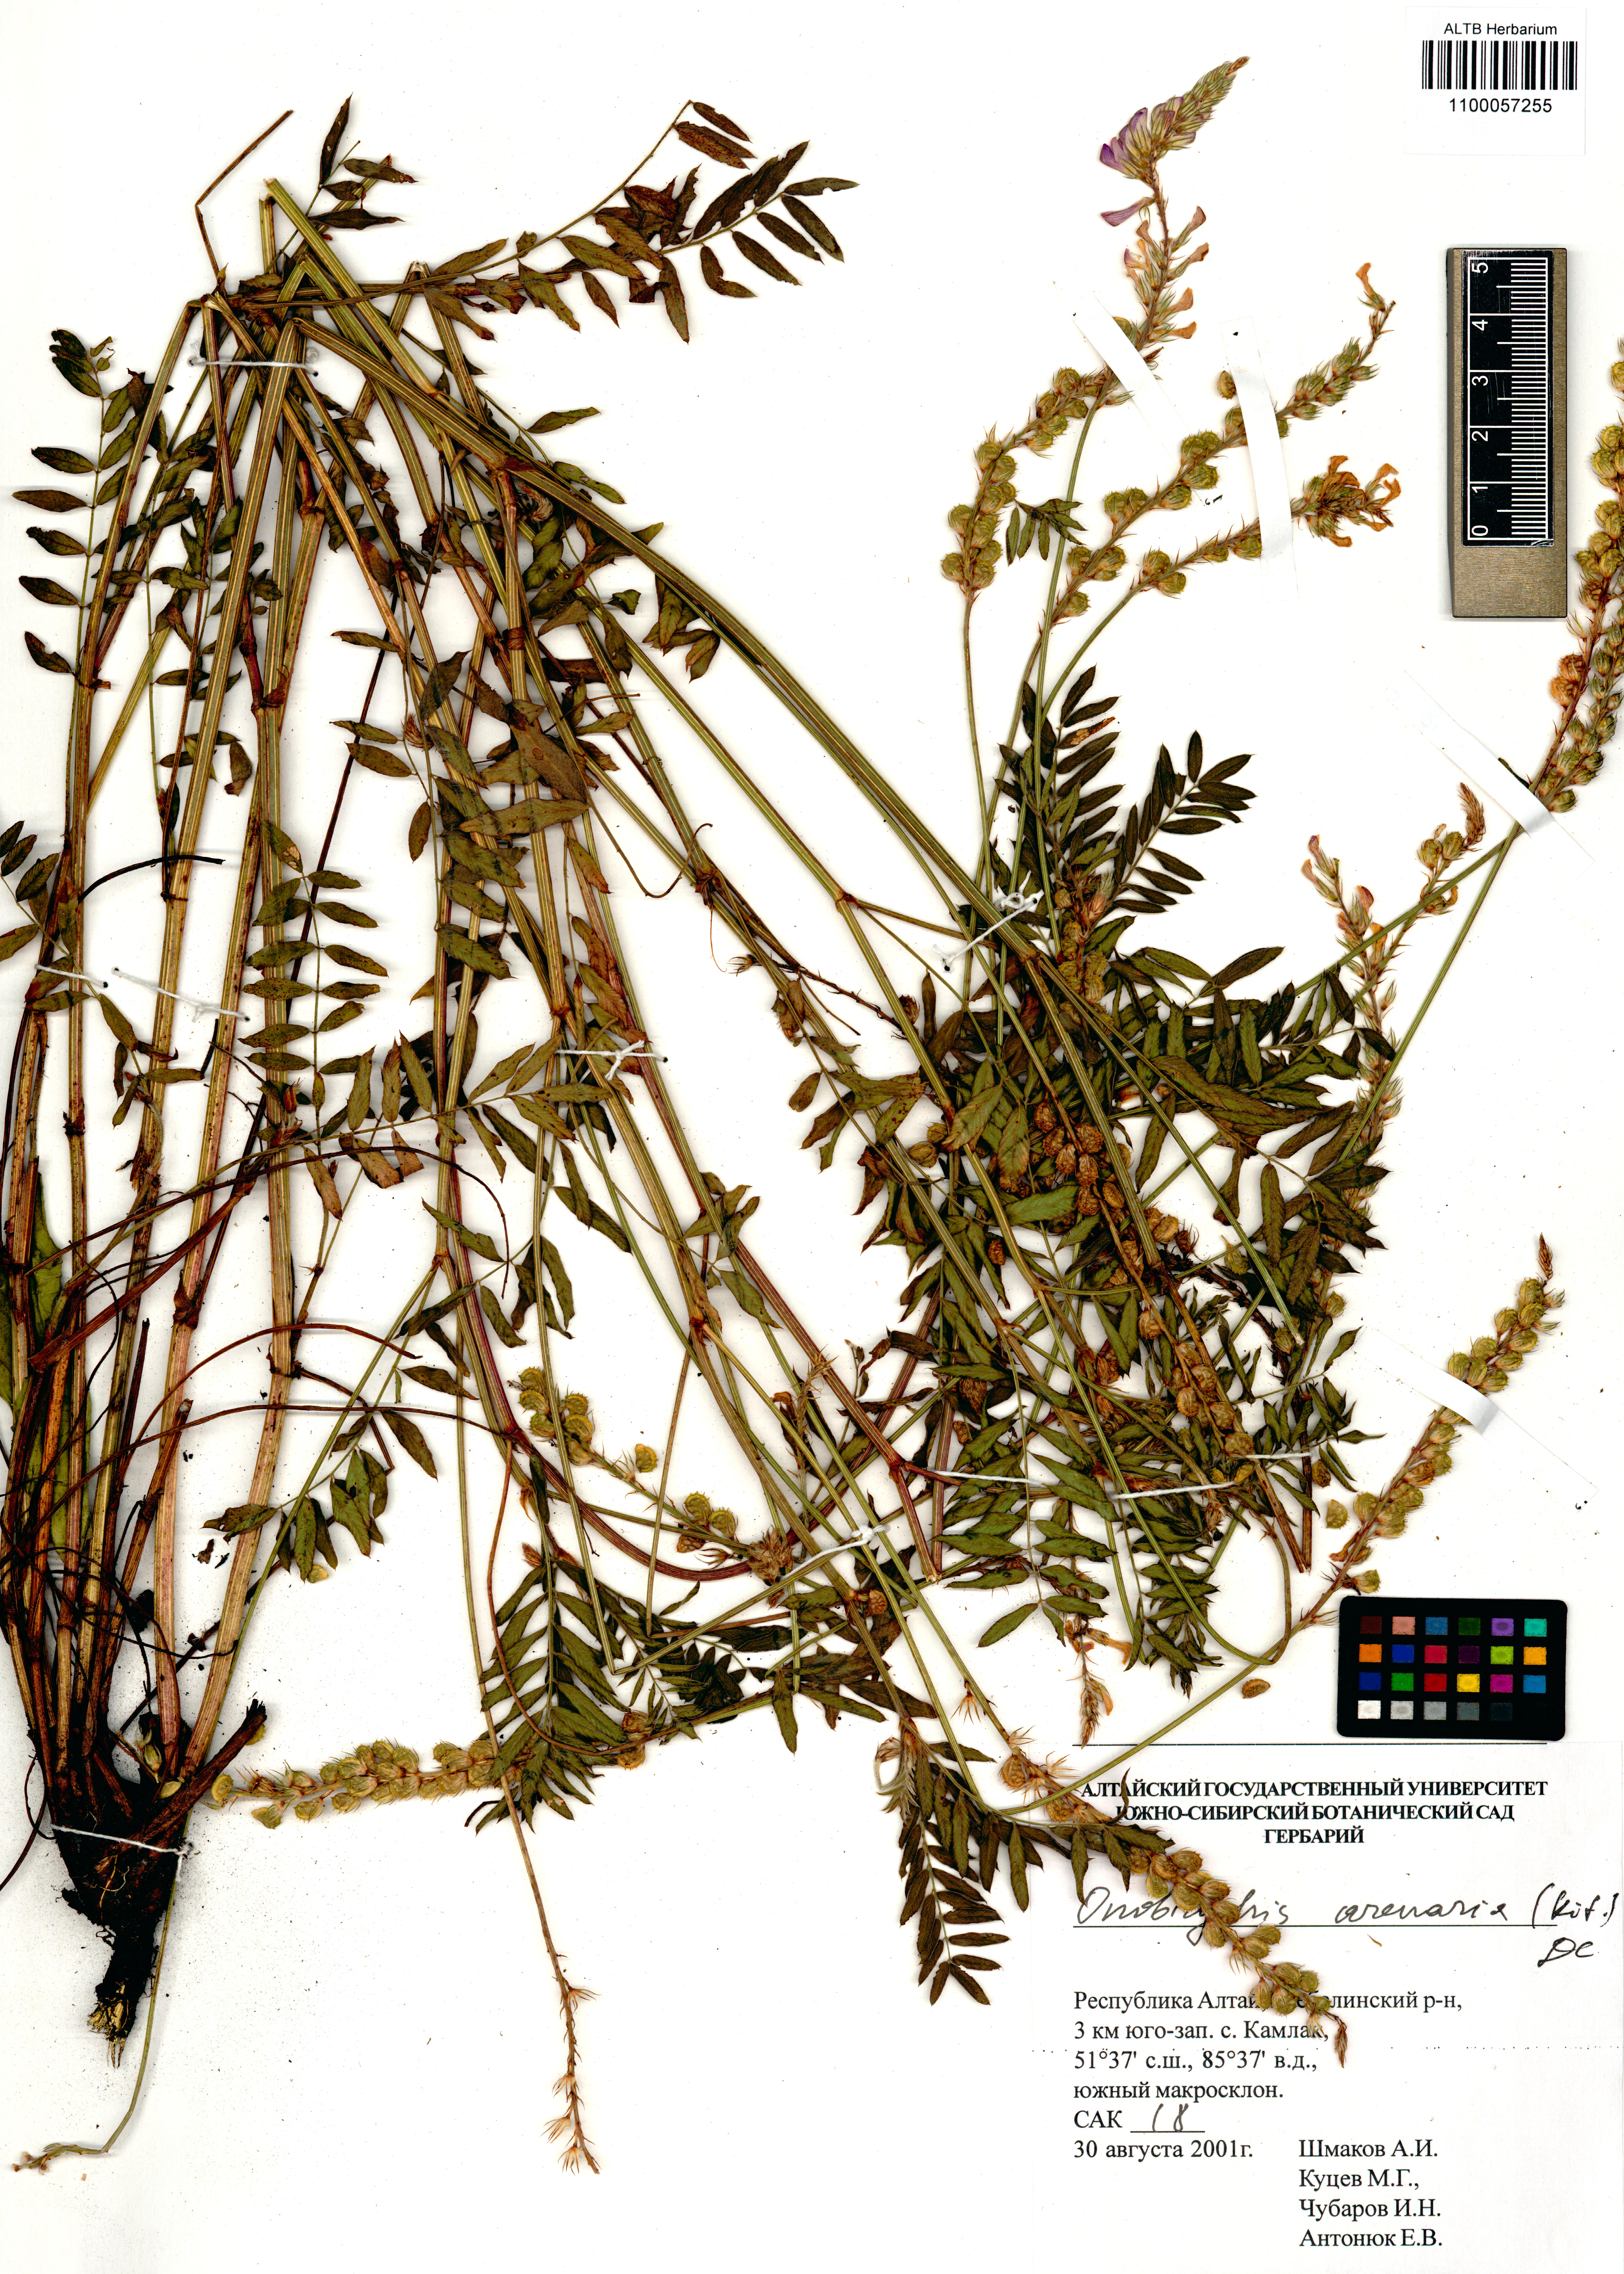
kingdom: Plantae
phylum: Tracheophyta
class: Magnoliopsida
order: Fabales
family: Fabaceae
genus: Onobrychis
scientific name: Onobrychis arenaria
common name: Sand esparcet
